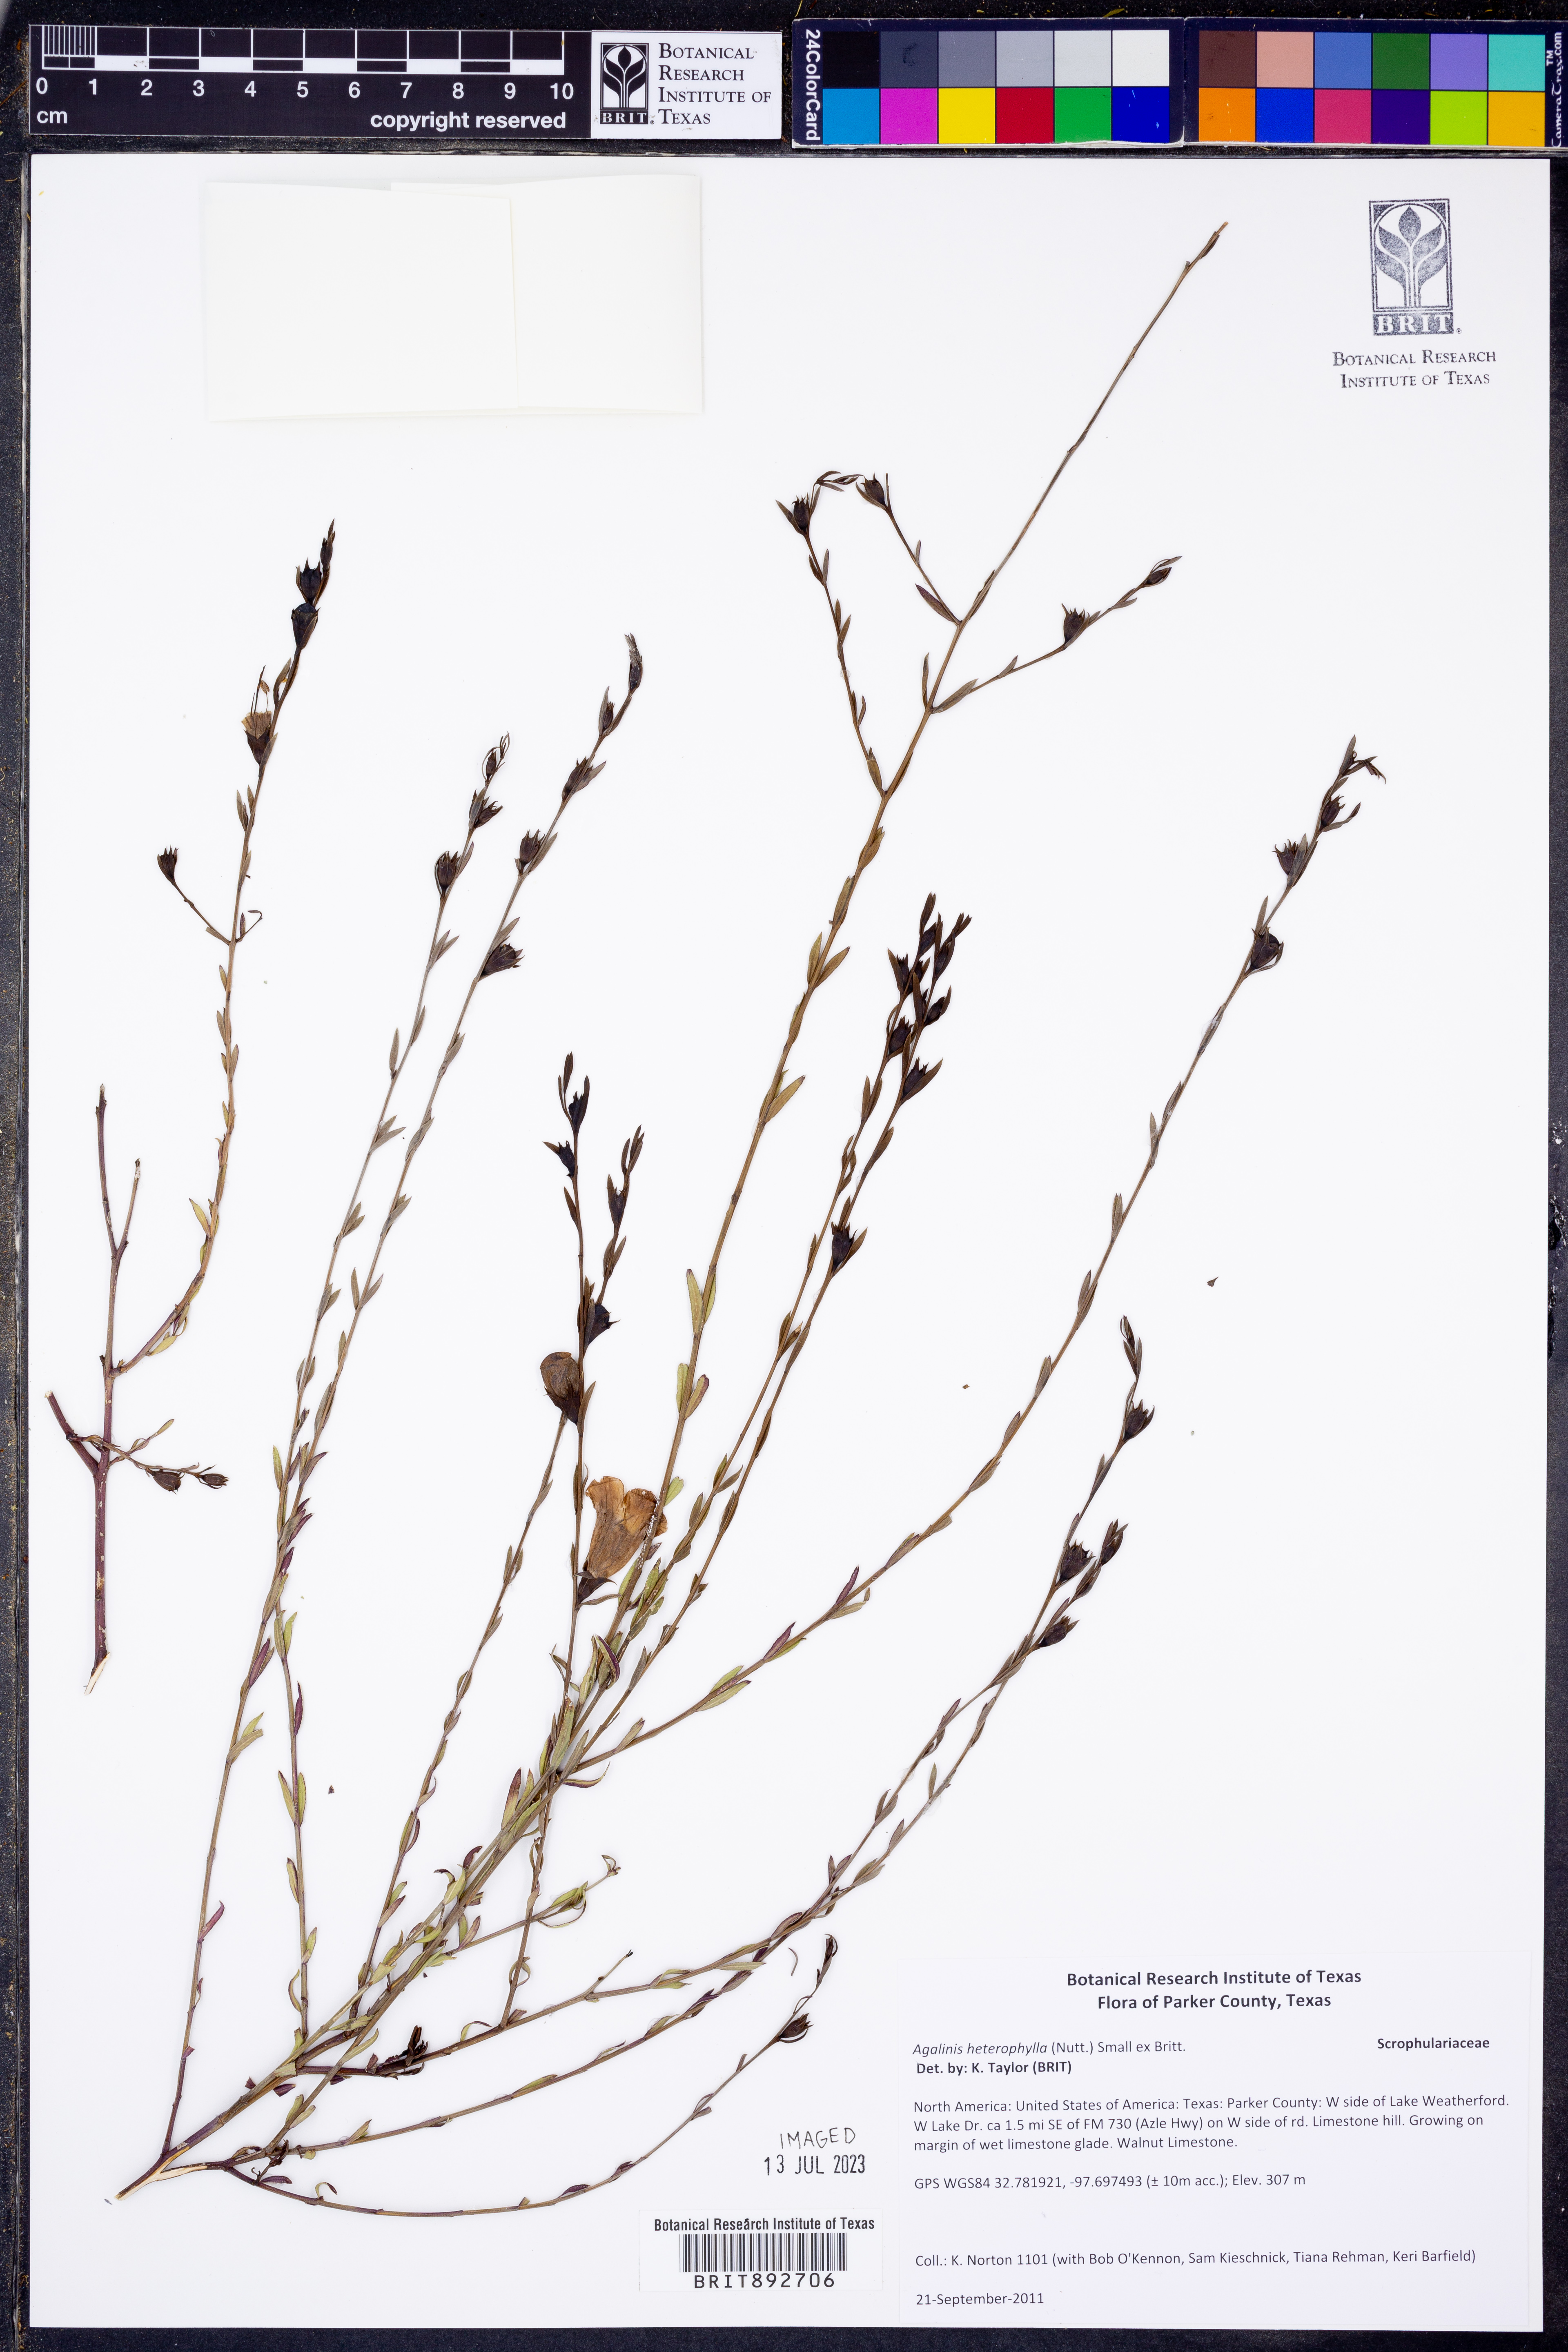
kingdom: Plantae
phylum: Tracheophyta
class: Magnoliopsida
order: Lamiales
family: Orobanchaceae
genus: Agalinis
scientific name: Agalinis heterophylla
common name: Prairie agalinis
